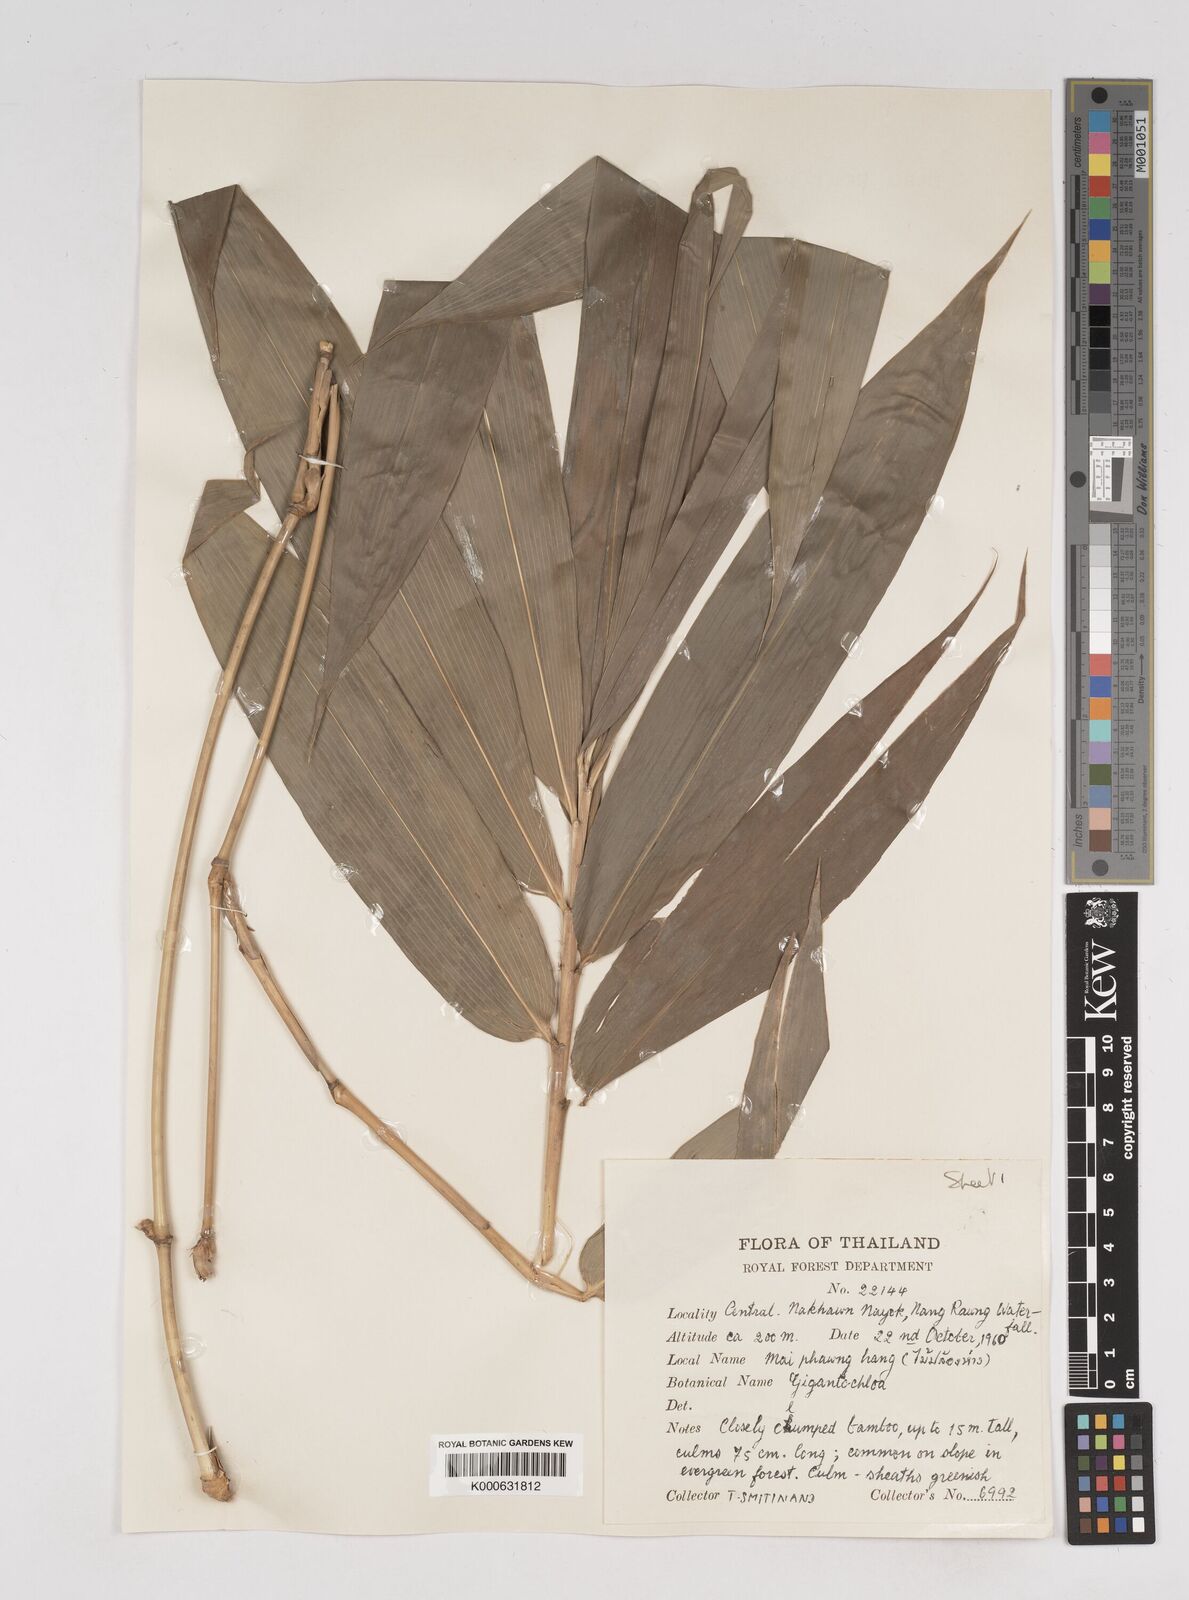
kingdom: Plantae
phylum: Tracheophyta
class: Liliopsida
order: Poales
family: Poaceae
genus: Gigantochloa
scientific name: Gigantochloa
